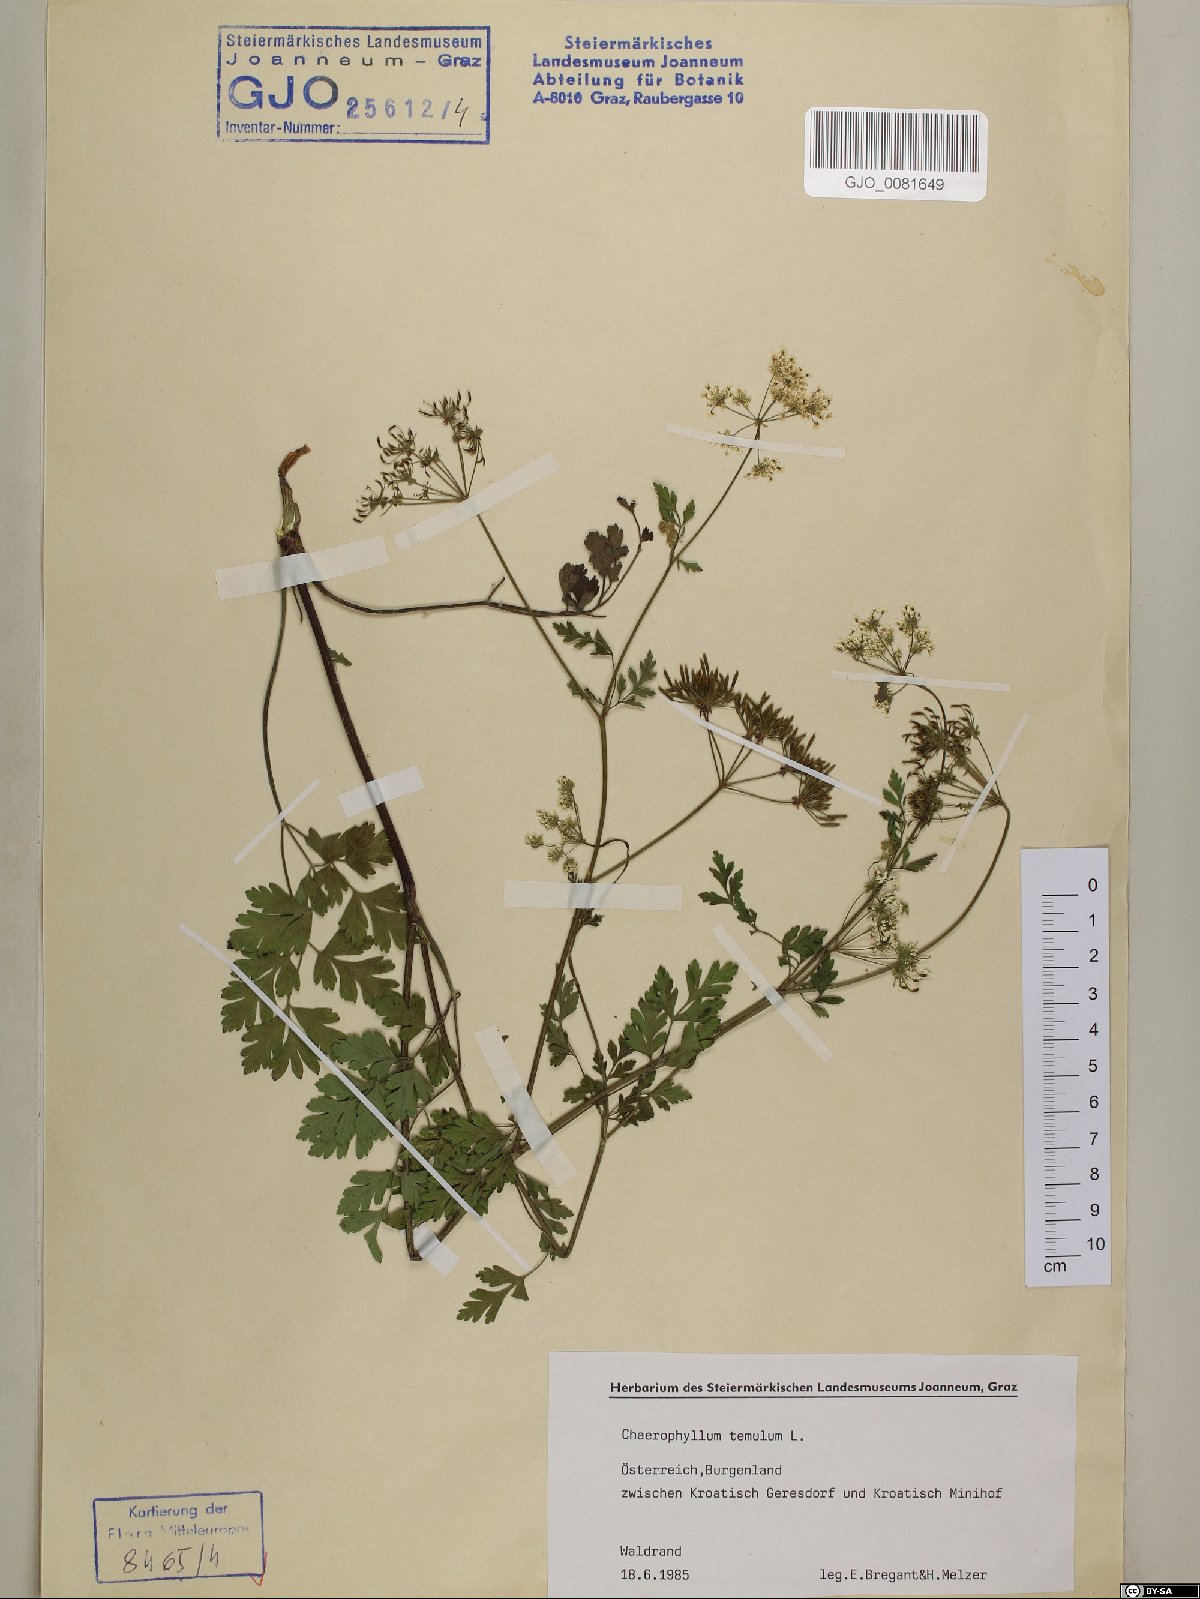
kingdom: Plantae
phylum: Tracheophyta
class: Magnoliopsida
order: Apiales
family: Apiaceae
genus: Chaerophyllum
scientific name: Chaerophyllum temulum
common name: Rough chervil
